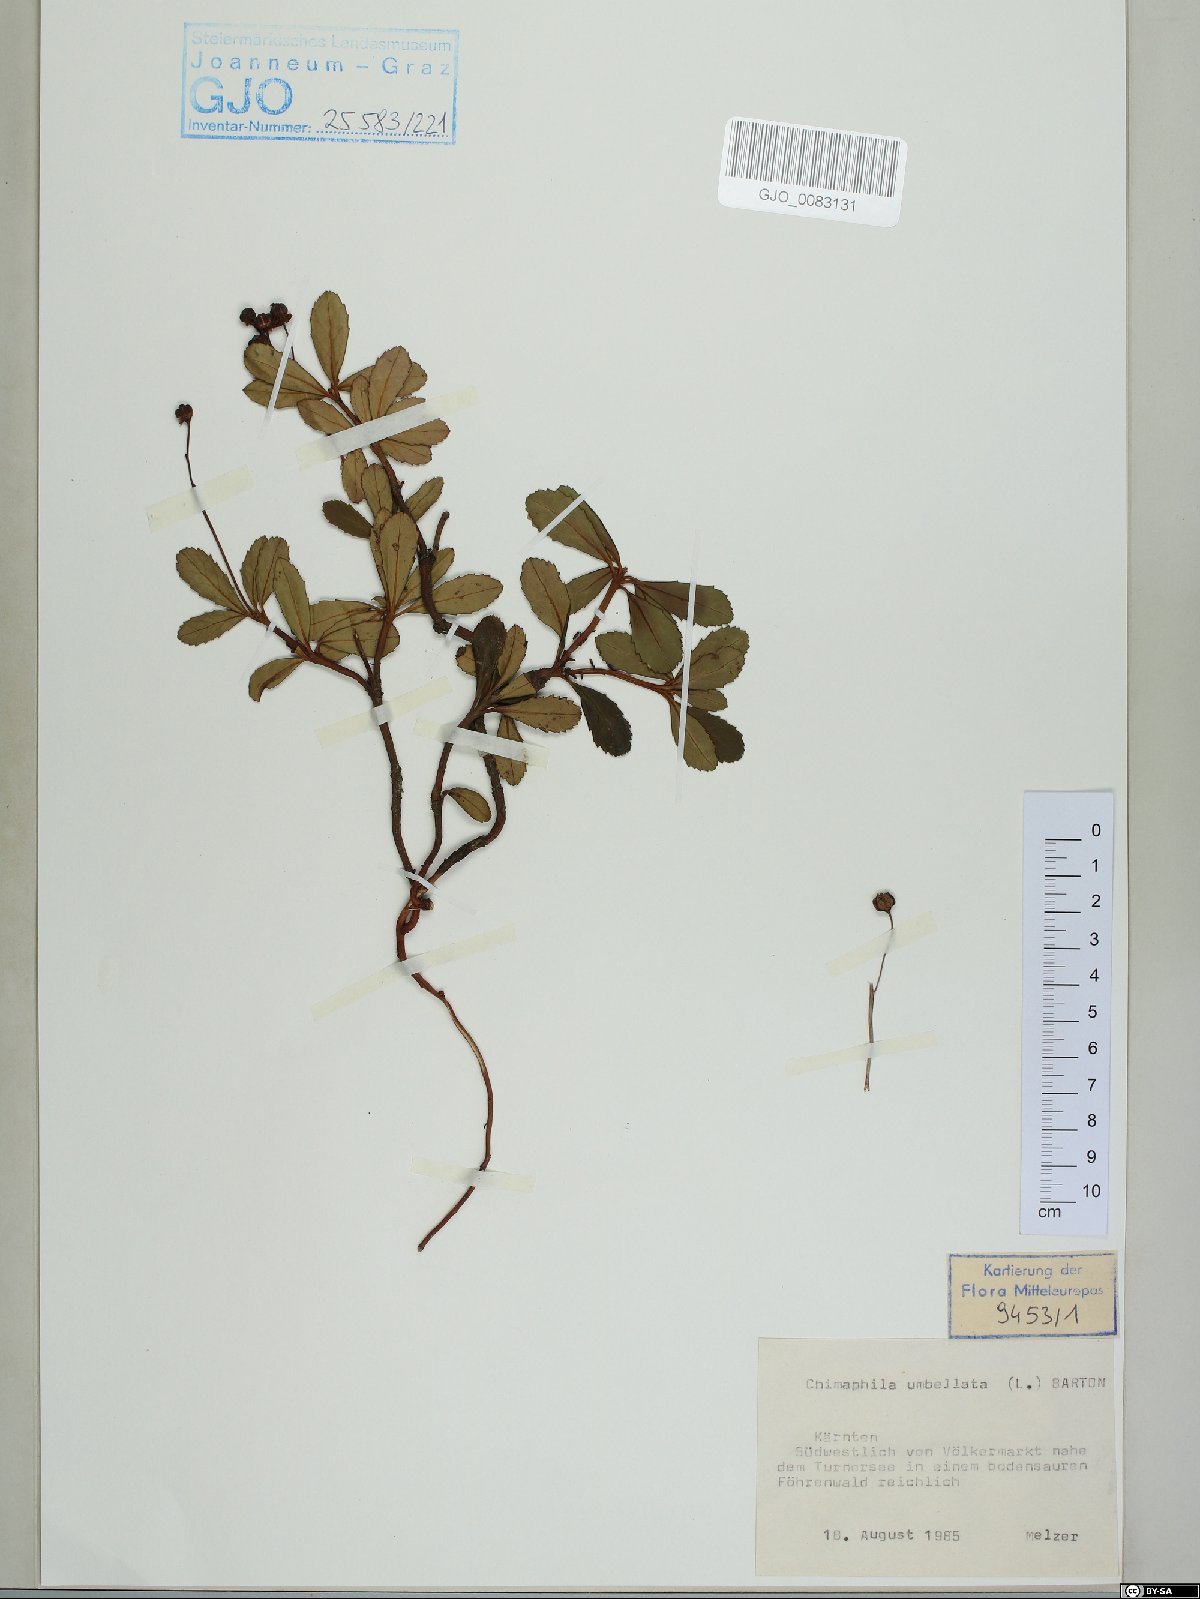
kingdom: Plantae
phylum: Tracheophyta
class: Magnoliopsida
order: Ericales
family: Ericaceae
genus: Chimaphila
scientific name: Chimaphila umbellata
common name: Pipsissewa
